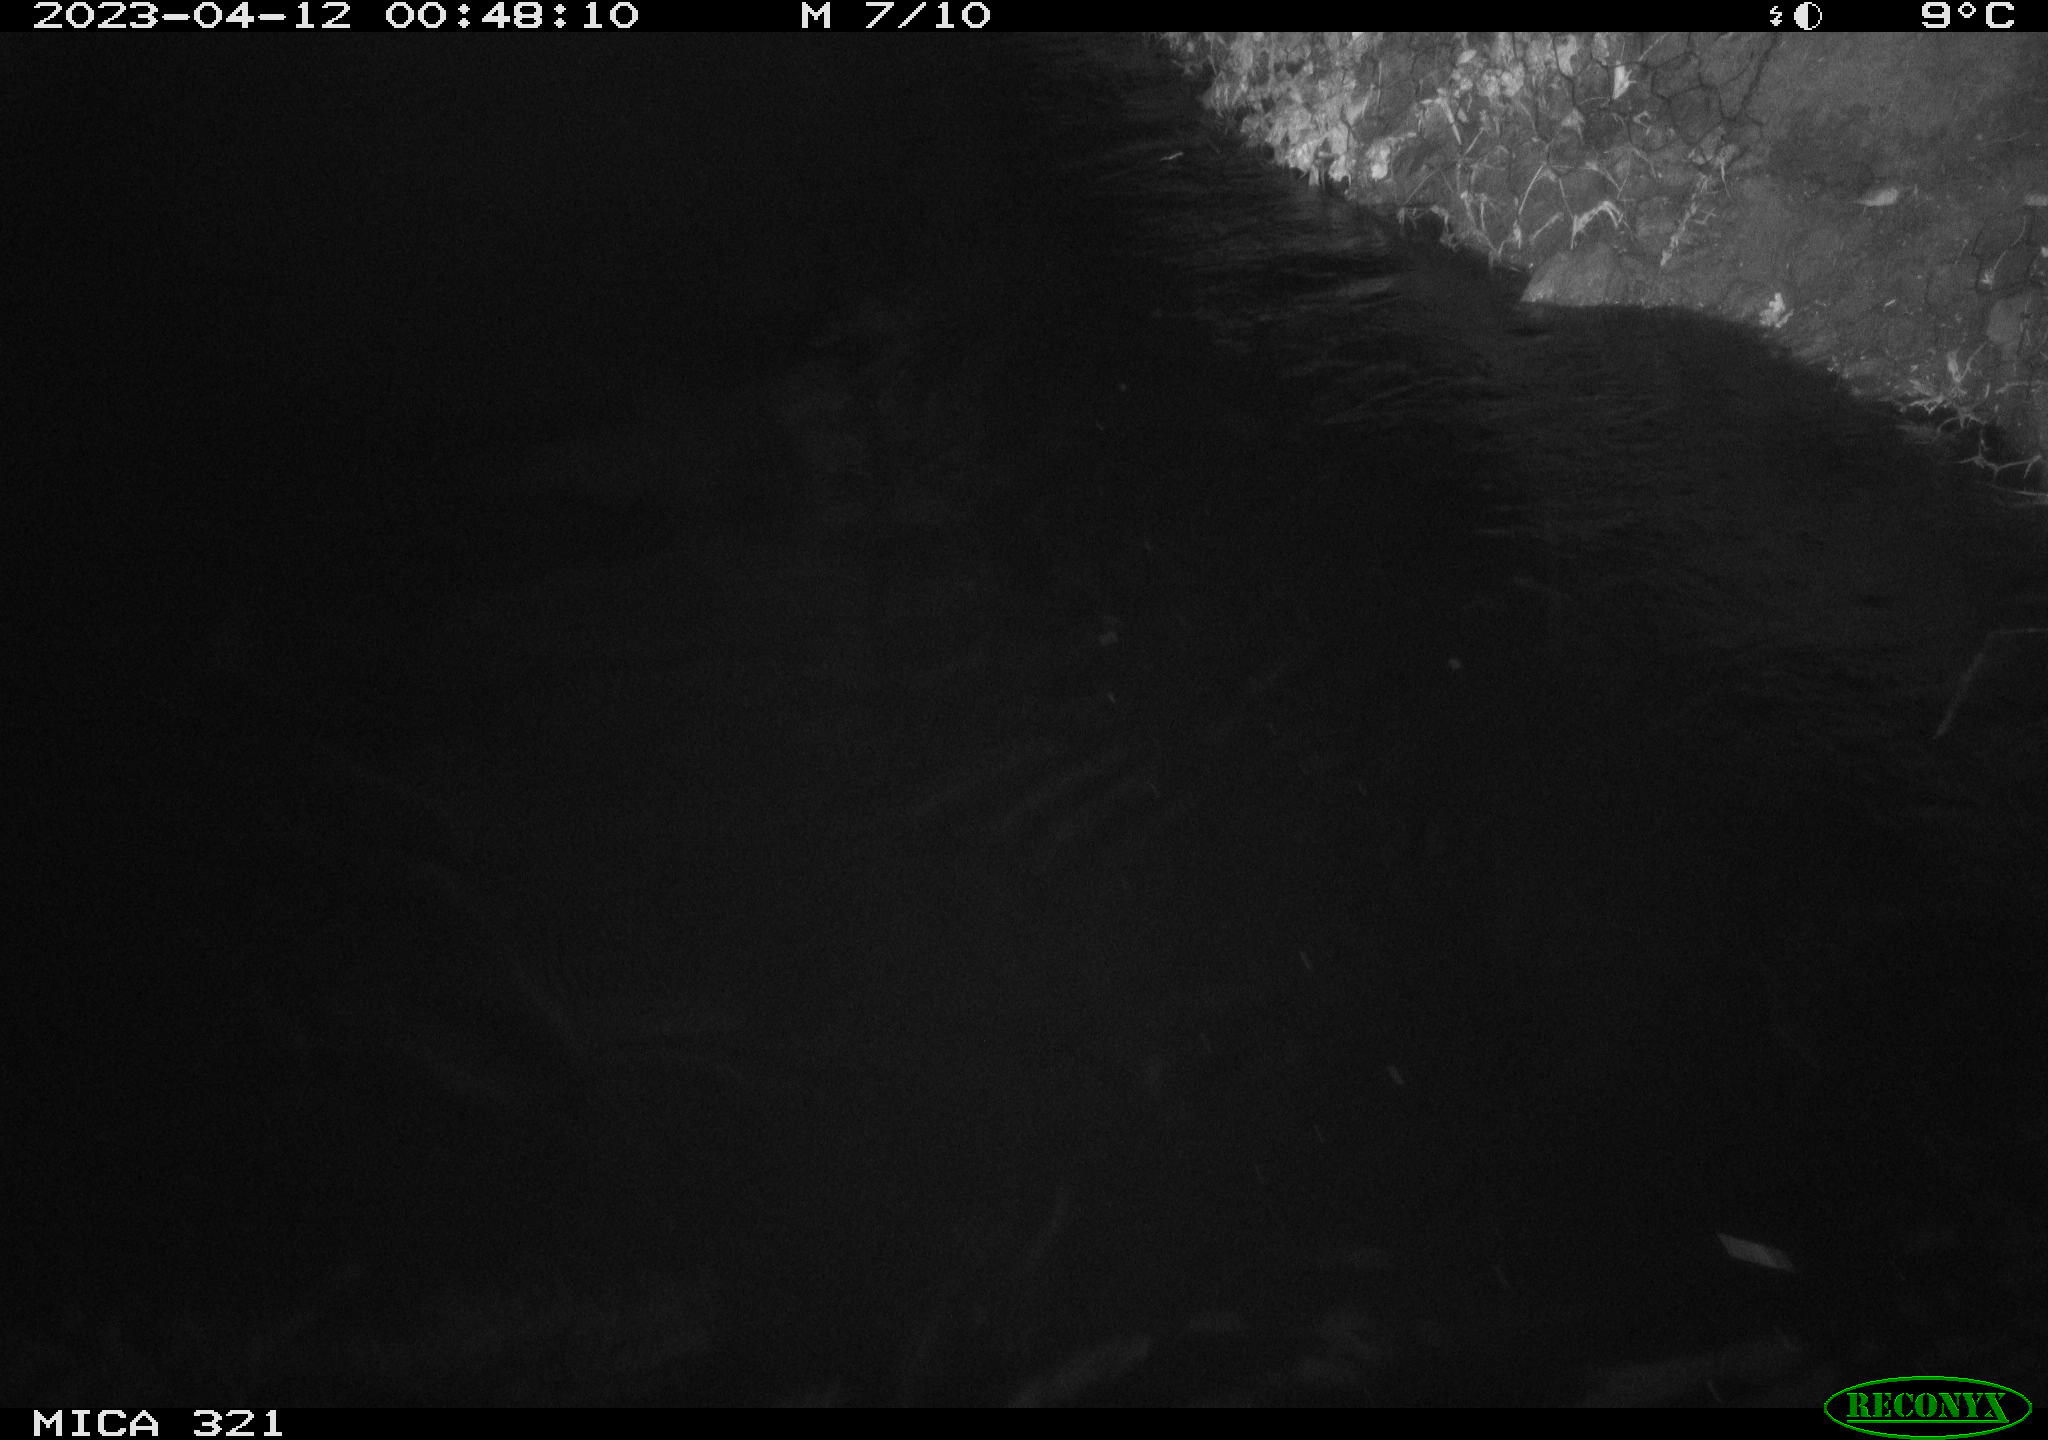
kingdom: Animalia
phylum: Chordata
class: Aves
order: Anseriformes
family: Anatidae
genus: Anas
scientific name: Anas
